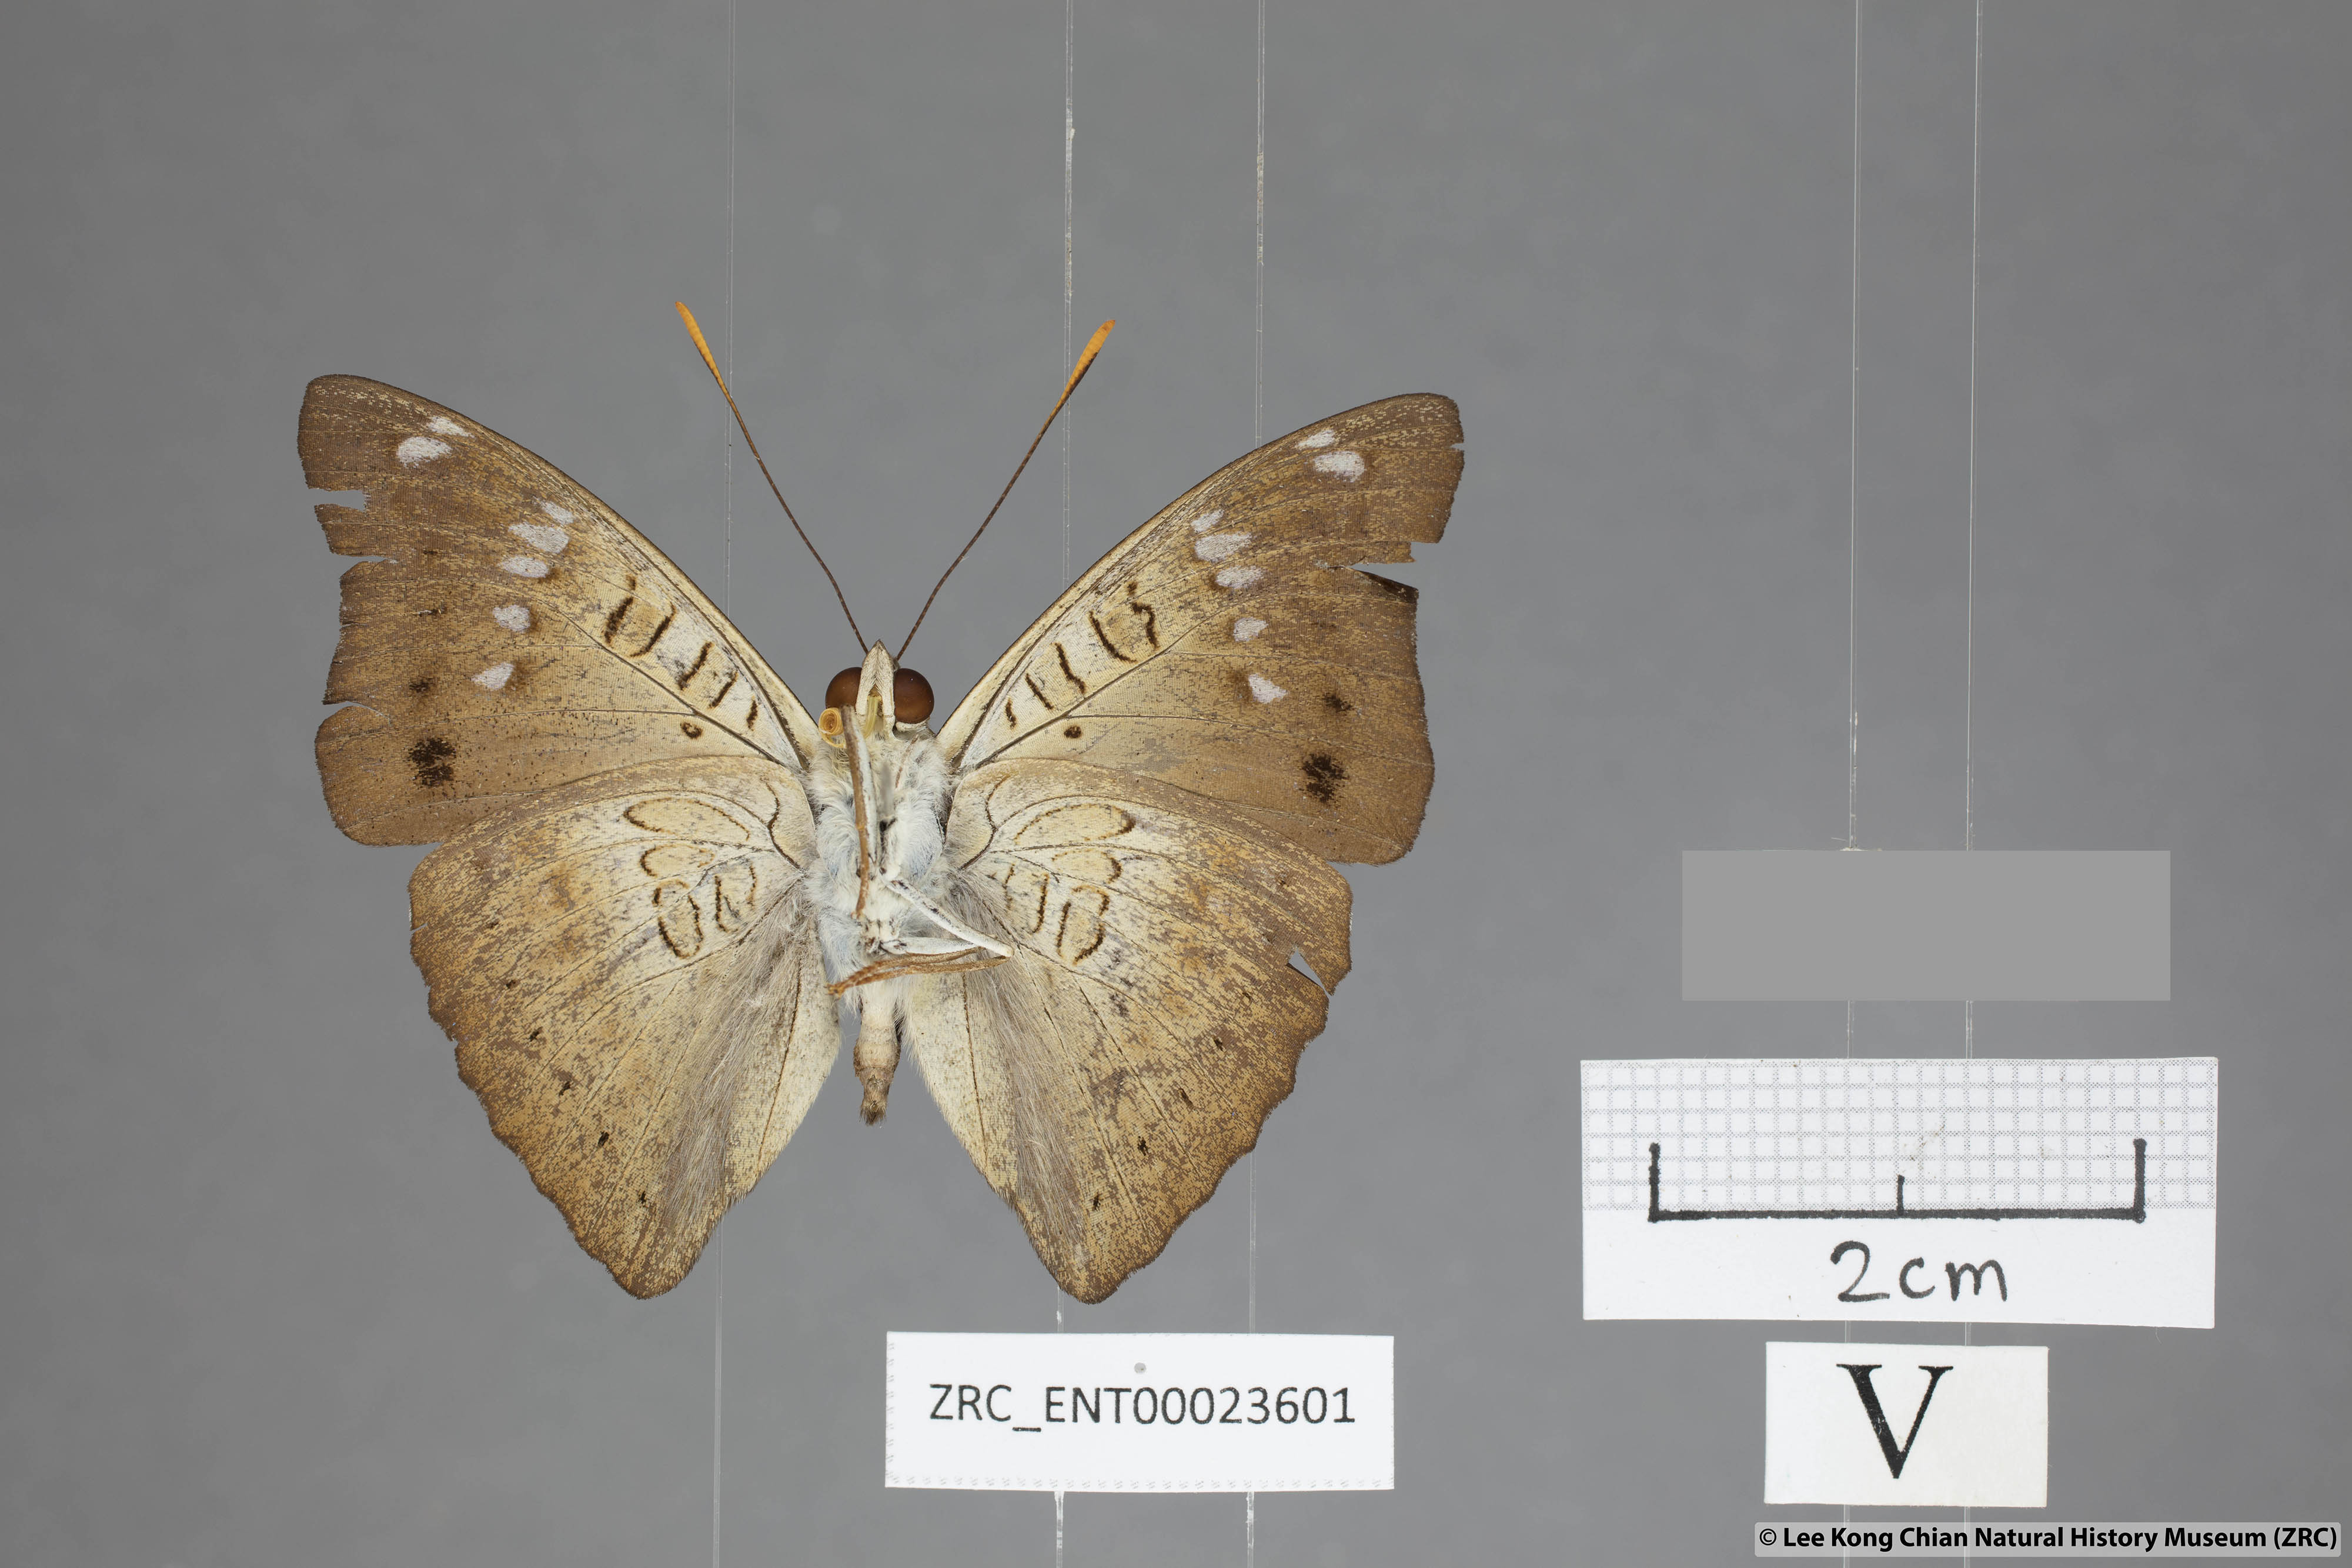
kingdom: Animalia
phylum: Arthropoda
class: Insecta
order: Lepidoptera
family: Nymphalidae
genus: Euthalia
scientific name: Euthalia agnis
